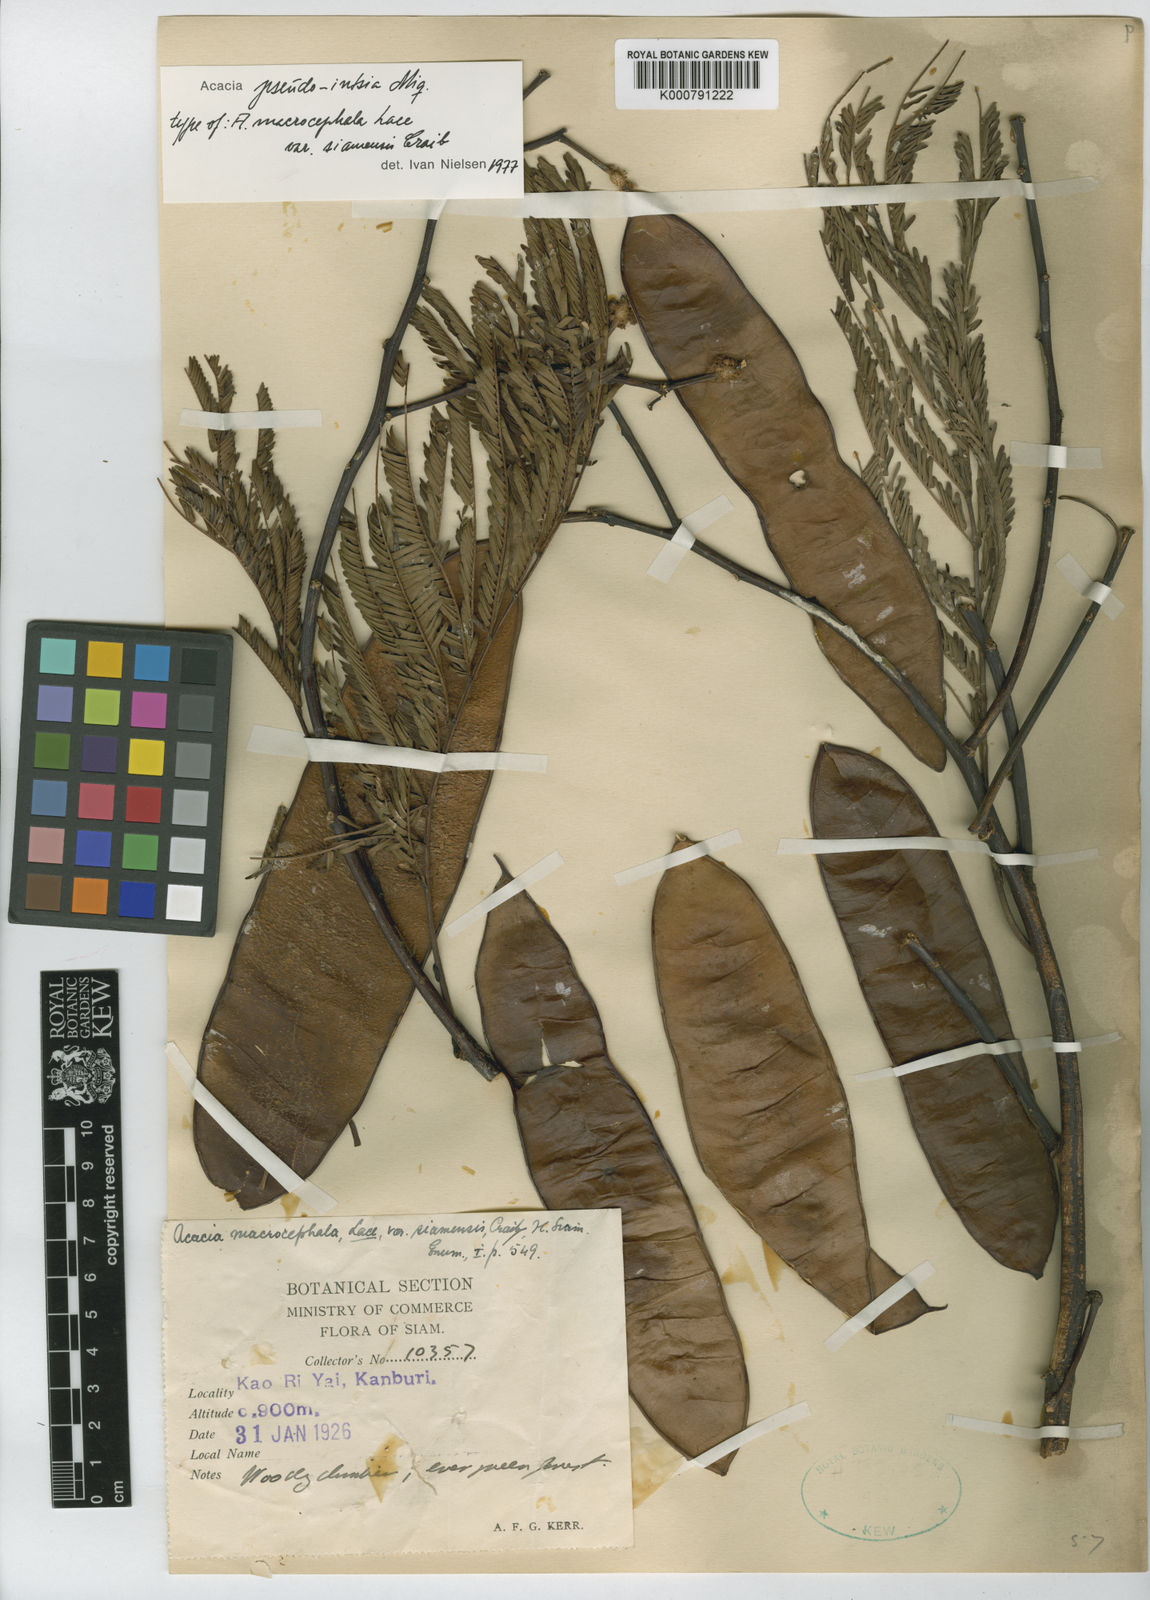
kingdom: Plantae
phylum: Tracheophyta
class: Magnoliopsida
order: Fabales
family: Fabaceae
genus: Senegalia
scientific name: Senegalia pseudointsia
